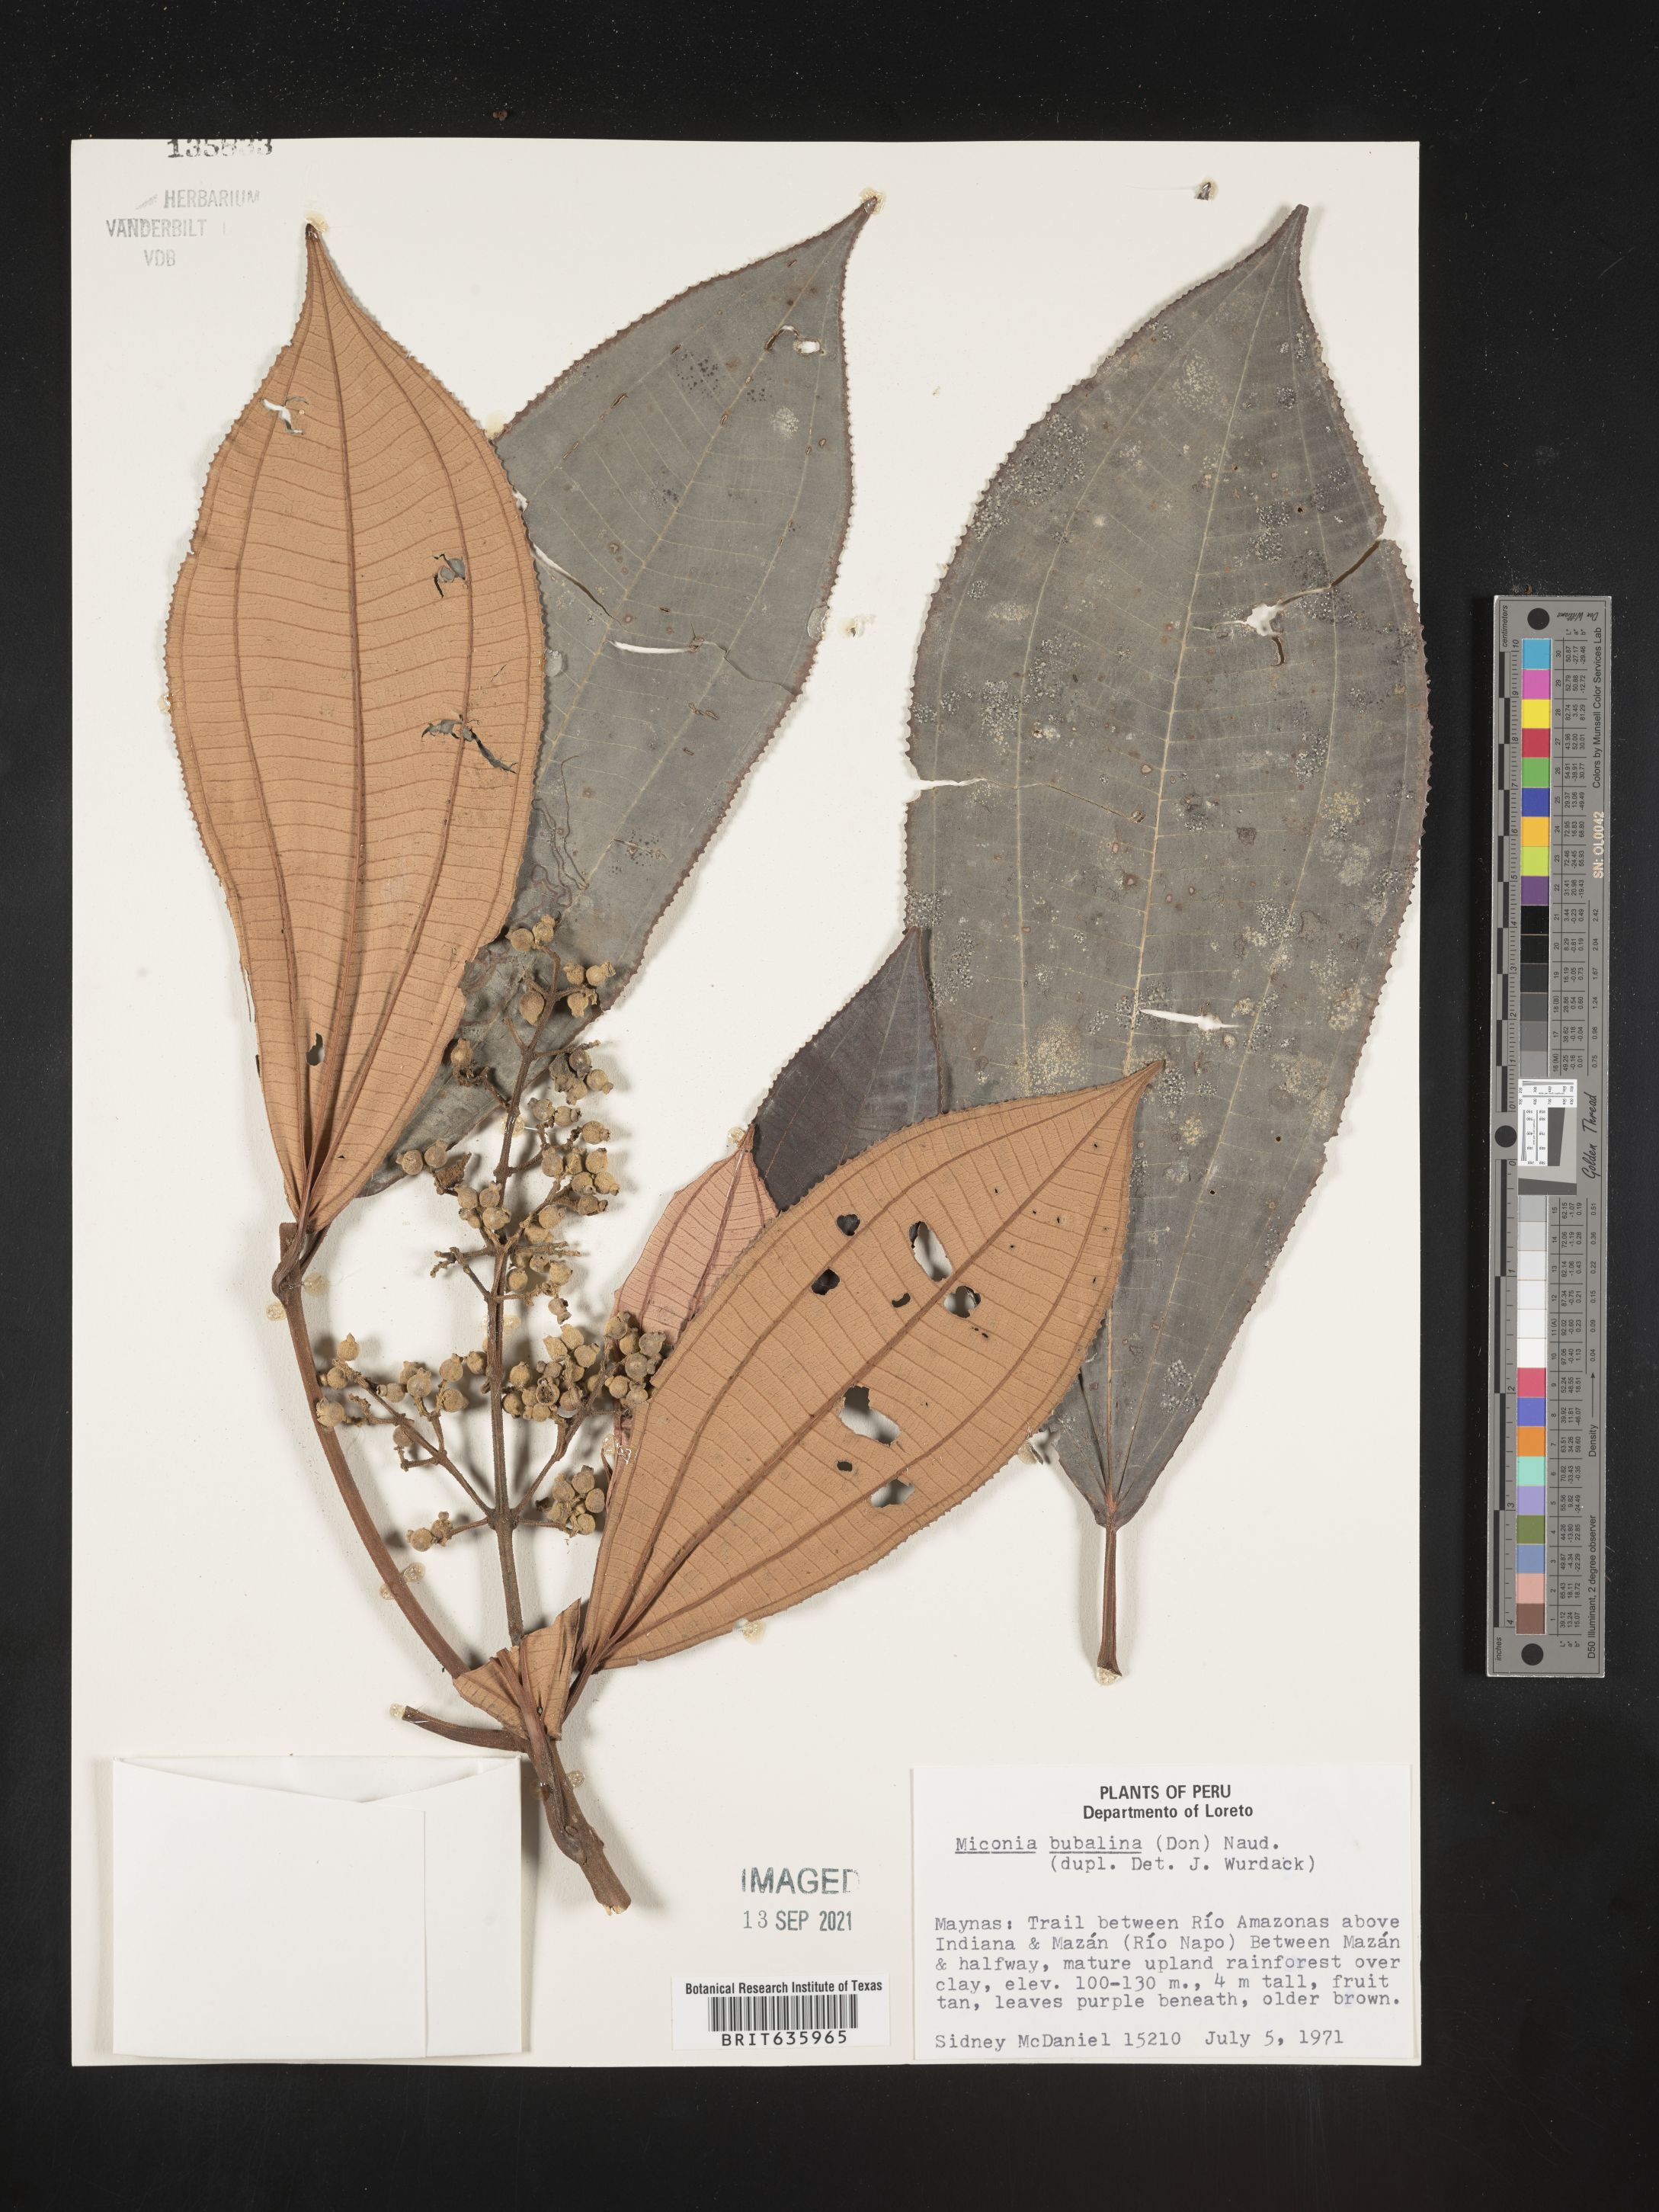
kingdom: Plantae
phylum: Tracheophyta
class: Magnoliopsida
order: Myrtales
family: Melastomataceae
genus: Miconia
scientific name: Miconia
